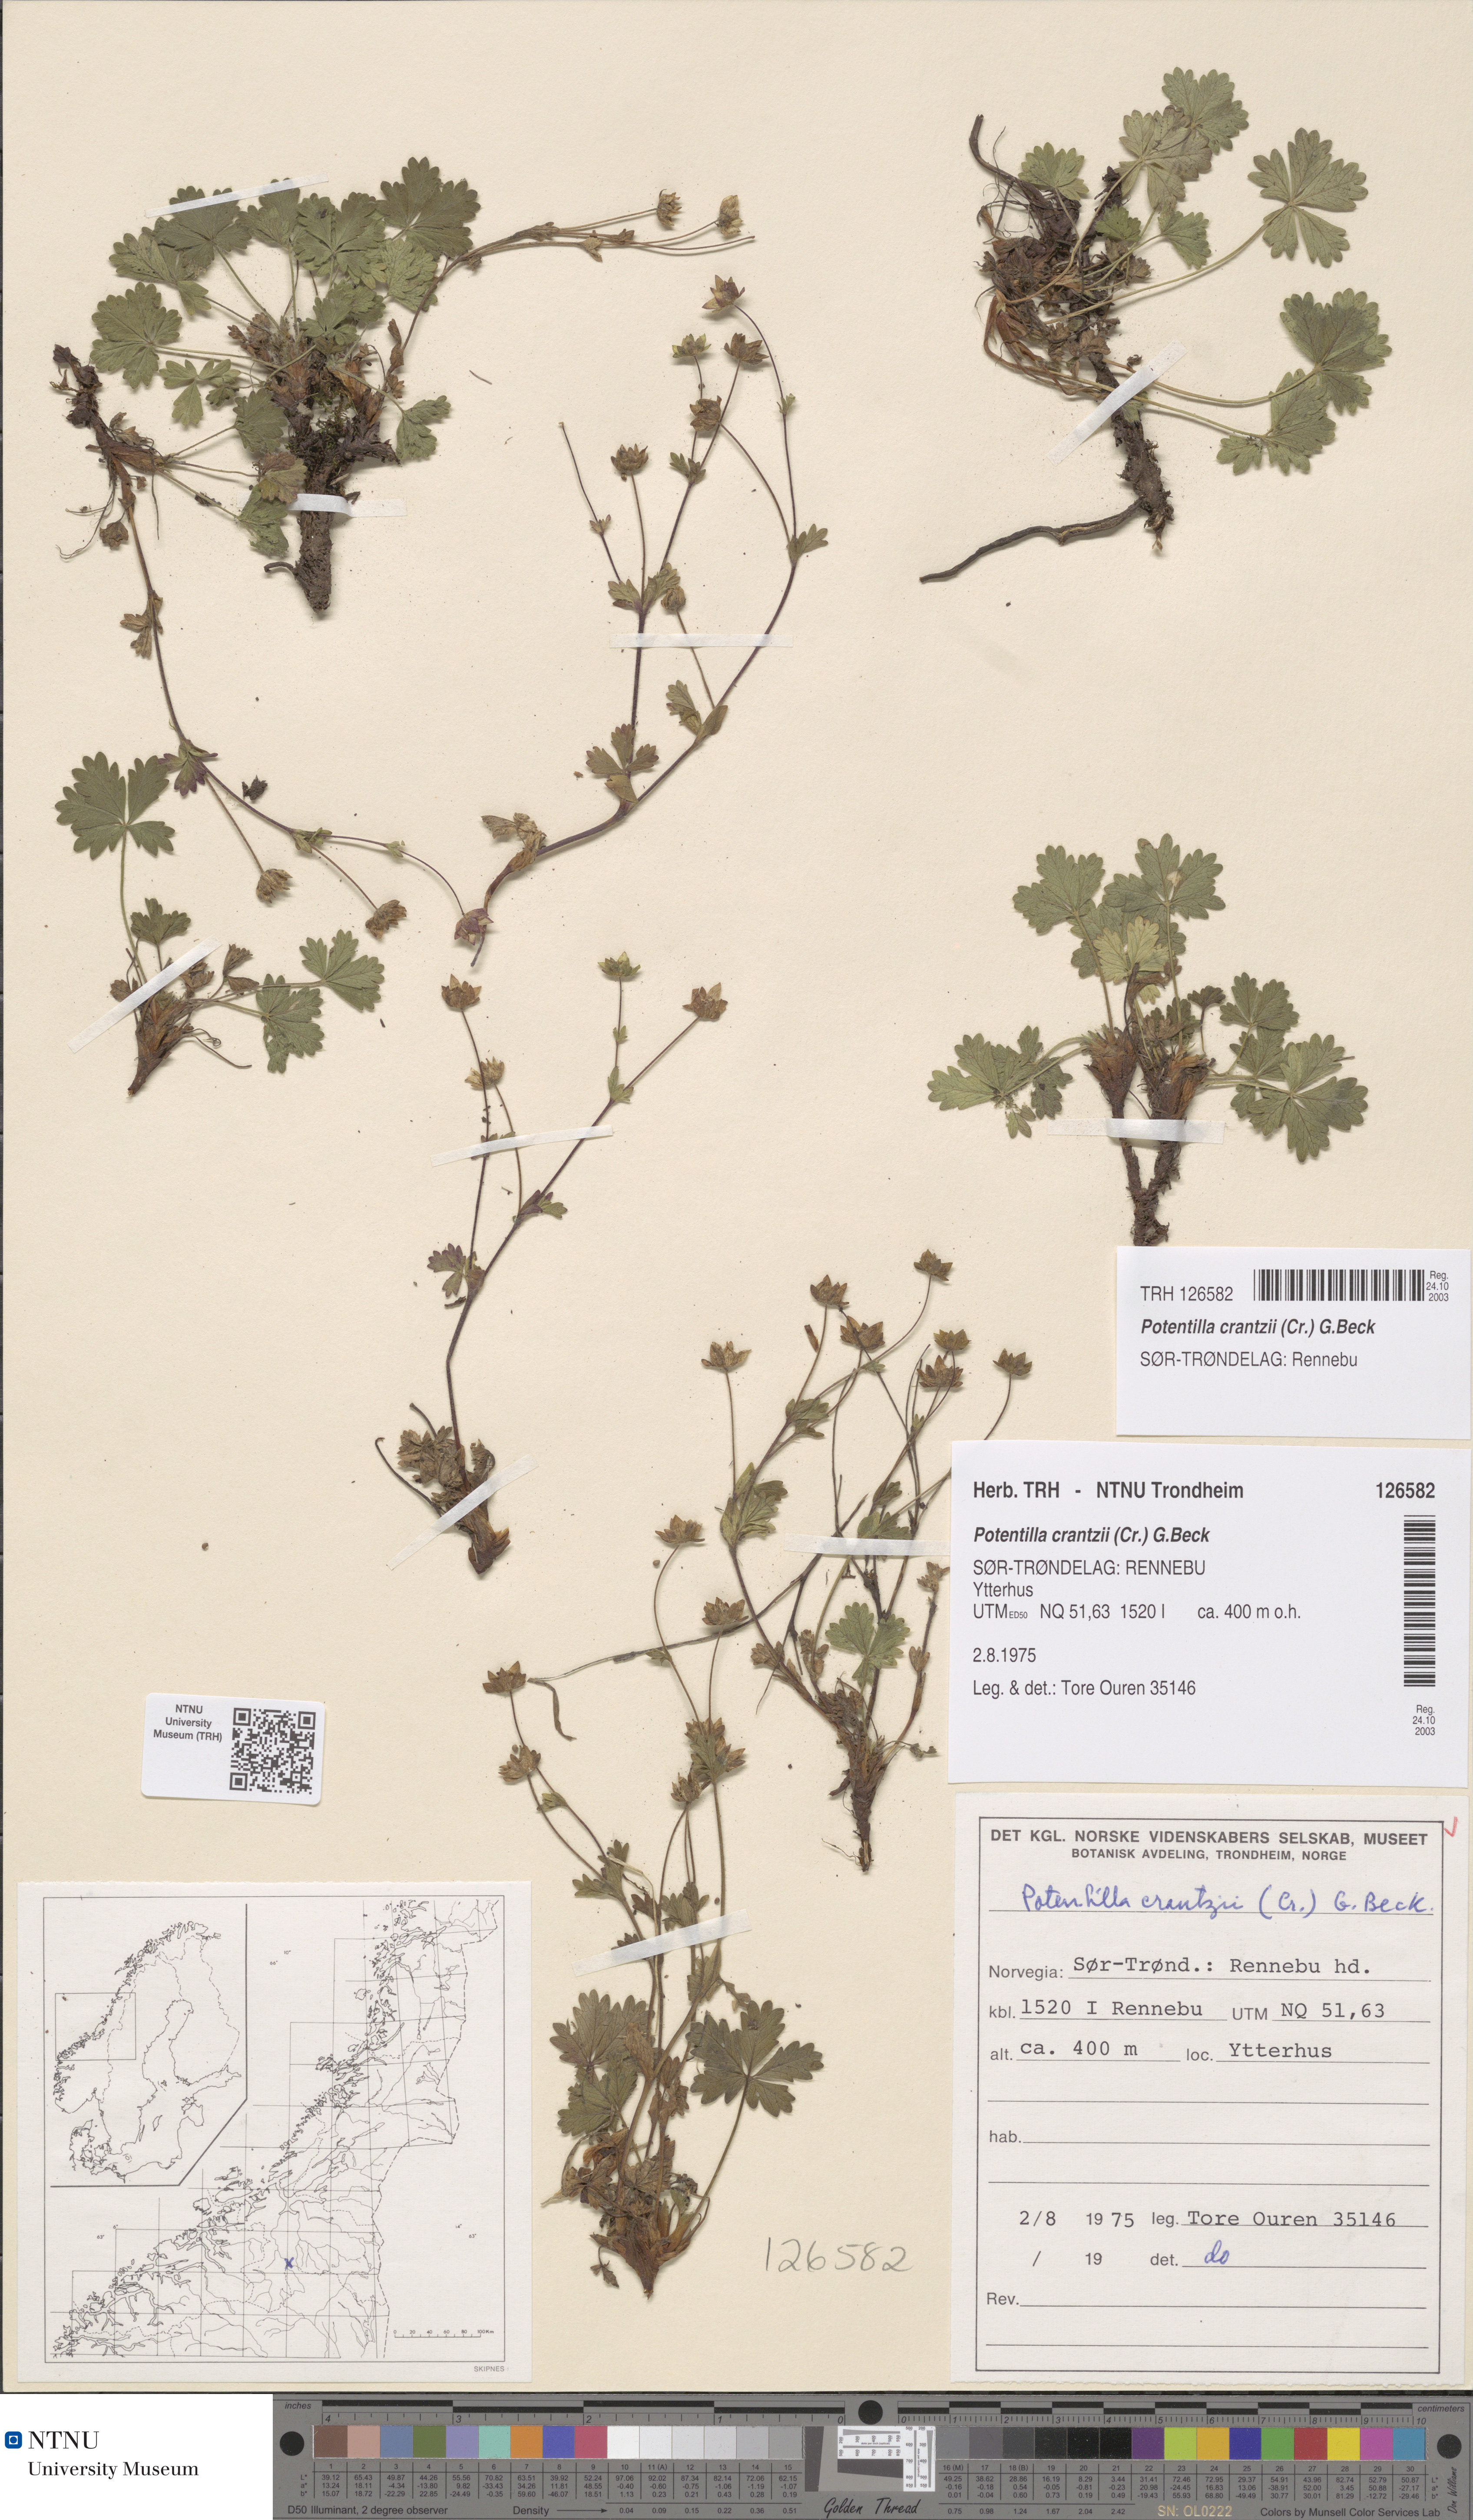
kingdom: Plantae
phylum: Tracheophyta
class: Magnoliopsida
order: Rosales
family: Rosaceae
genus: Potentilla
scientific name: Potentilla crantzii
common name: Alpine cinquefoil
